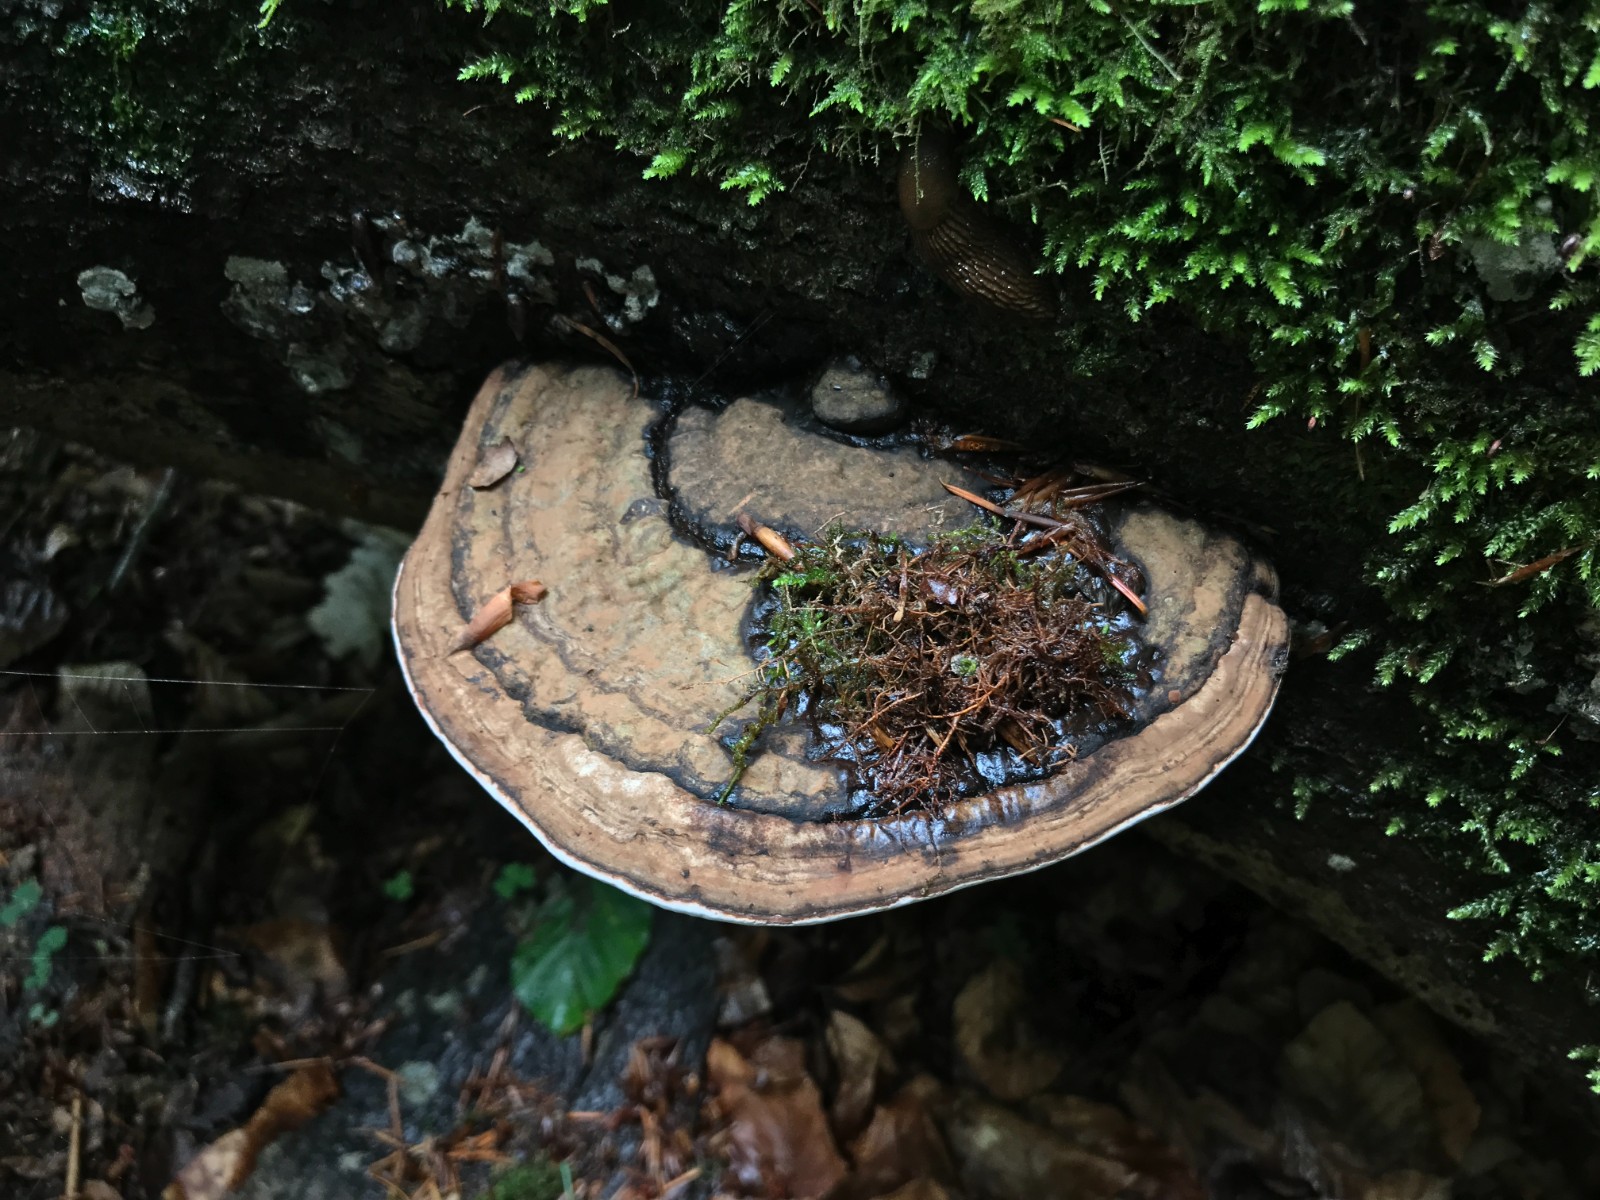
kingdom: Fungi
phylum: Basidiomycota
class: Agaricomycetes
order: Polyporales
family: Polyporaceae
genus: Ganoderma
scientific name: Ganoderma applanatum
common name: flad lakporesvamp
